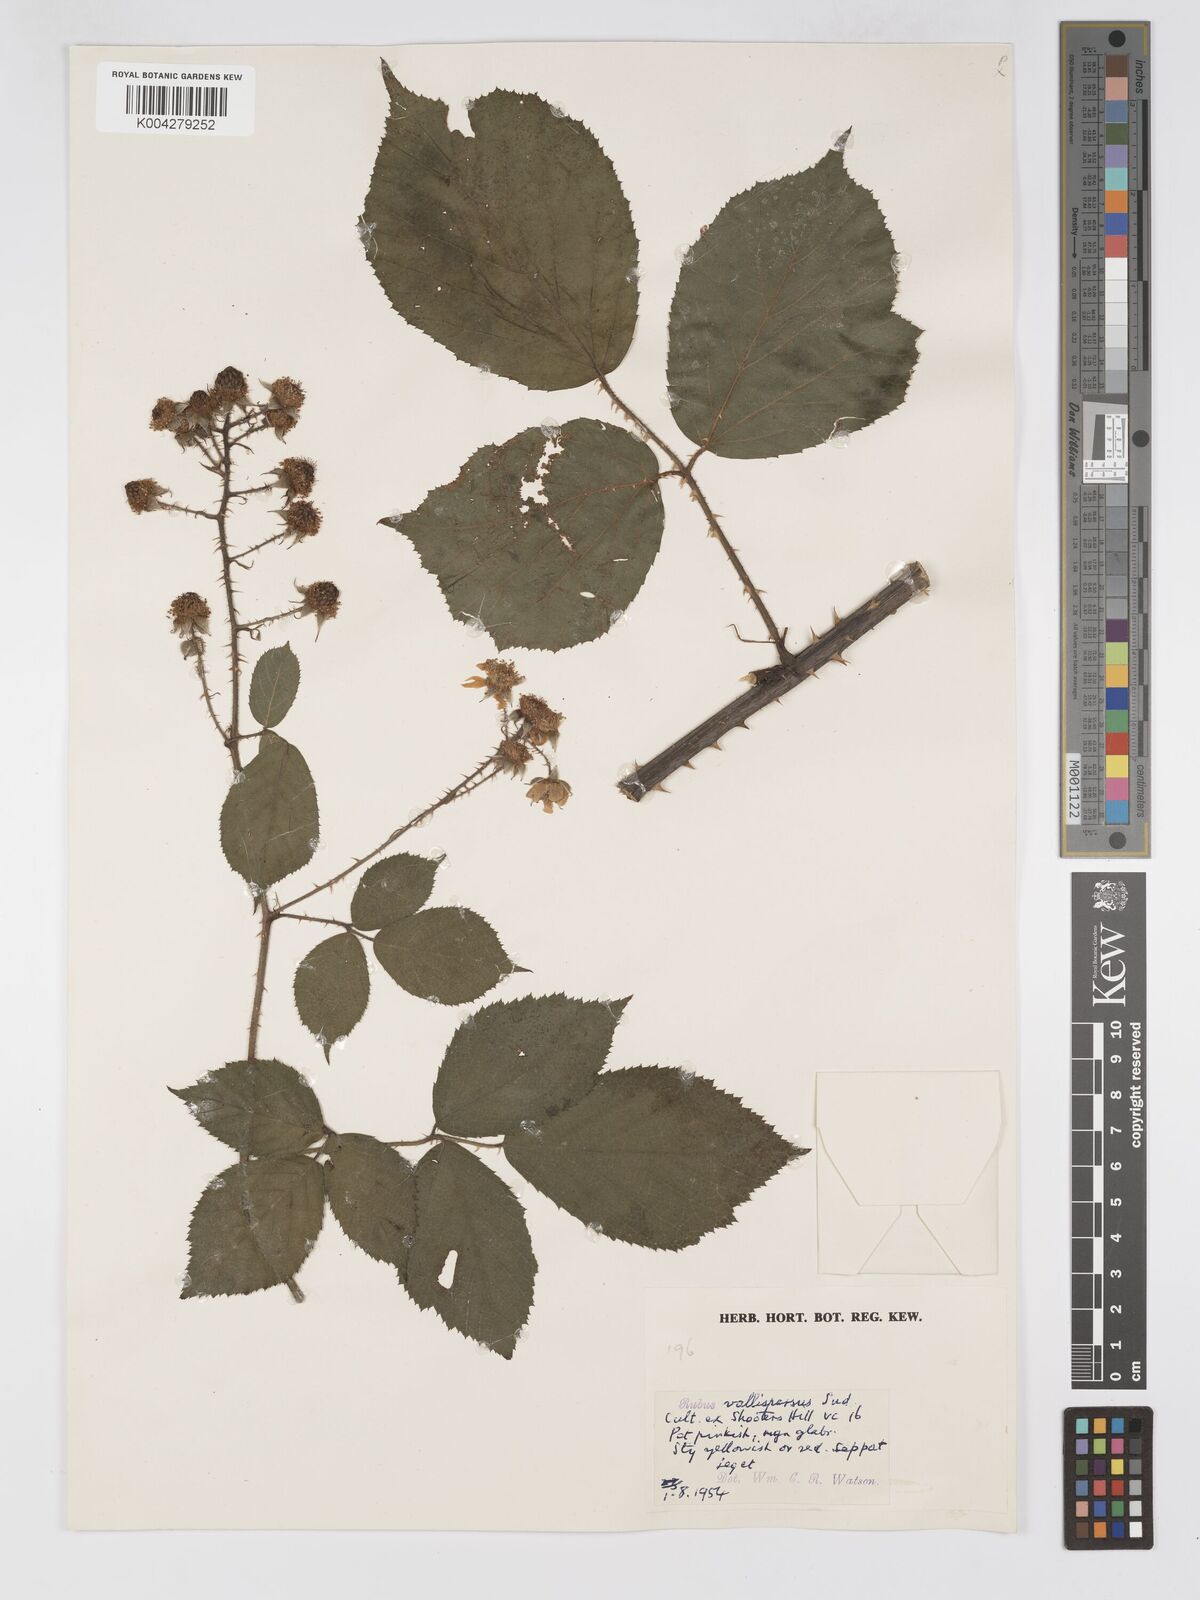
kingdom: Plantae
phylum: Tracheophyta
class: Magnoliopsida
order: Rosales
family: Rosaceae
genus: Rubus
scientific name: Rubus vallisparsus
